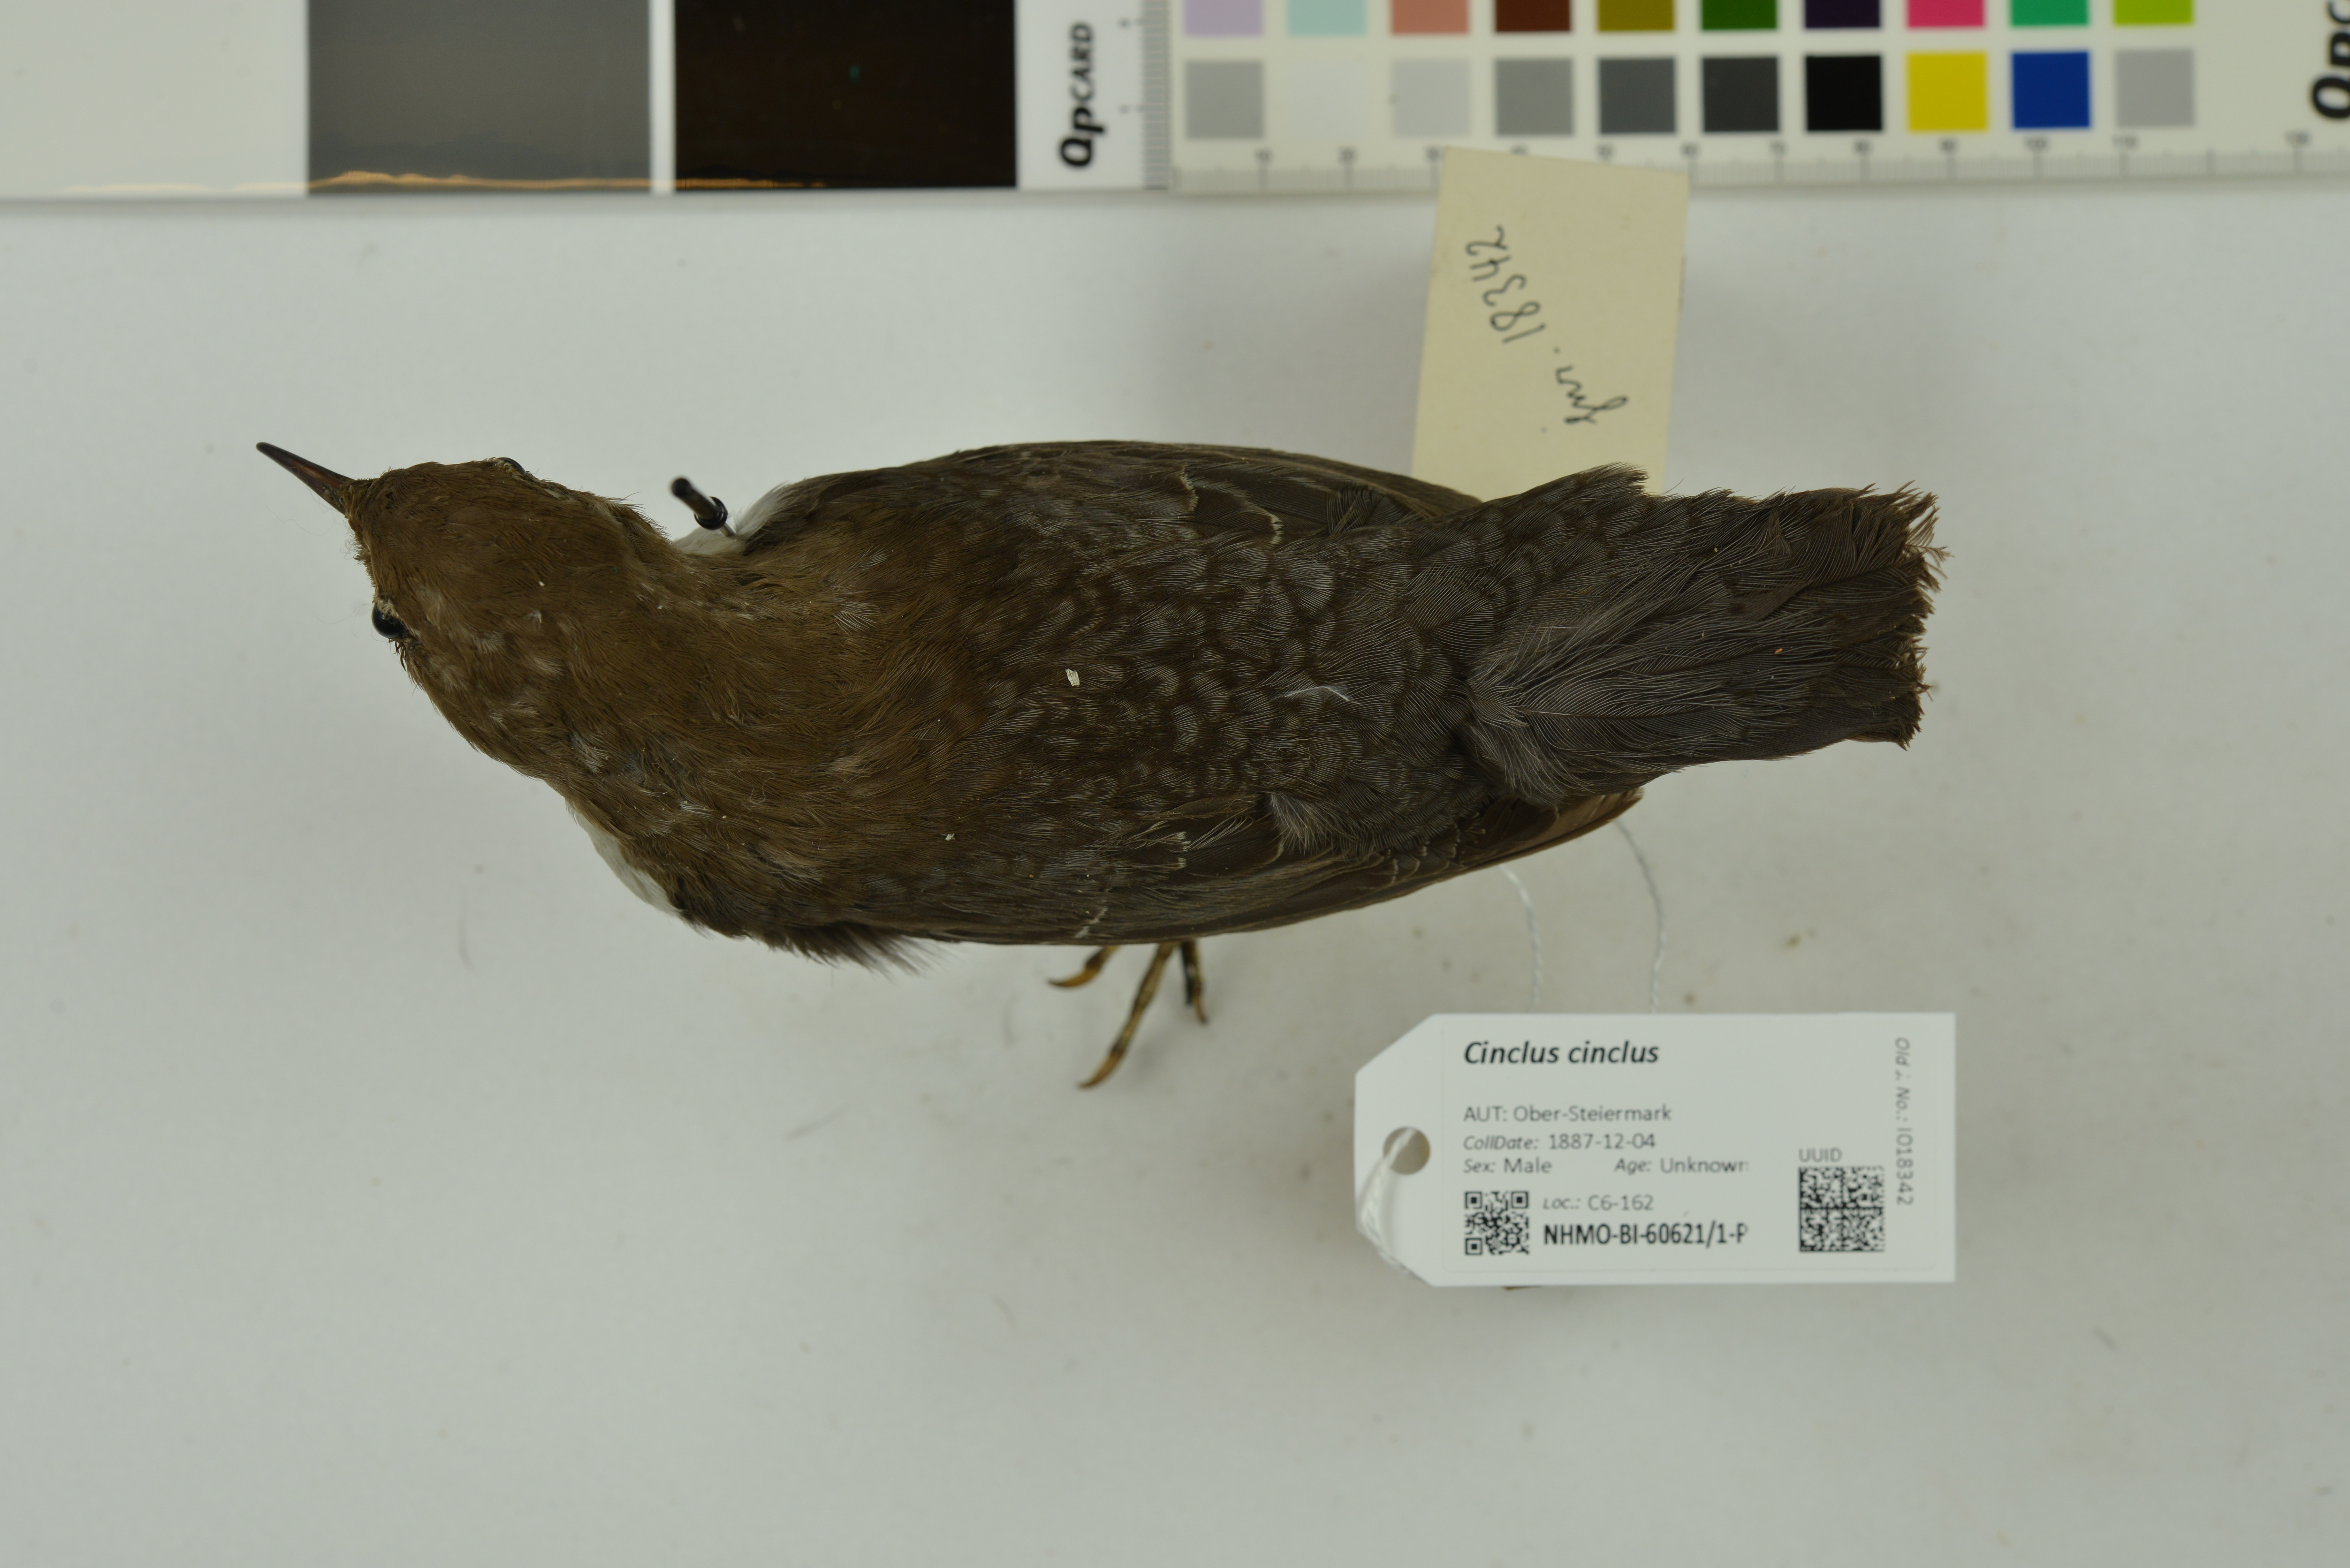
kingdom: Animalia
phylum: Chordata
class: Aves
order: Passeriformes
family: Cinclidae
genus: Cinclus
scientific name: Cinclus cinclus
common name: White-throated dipper
